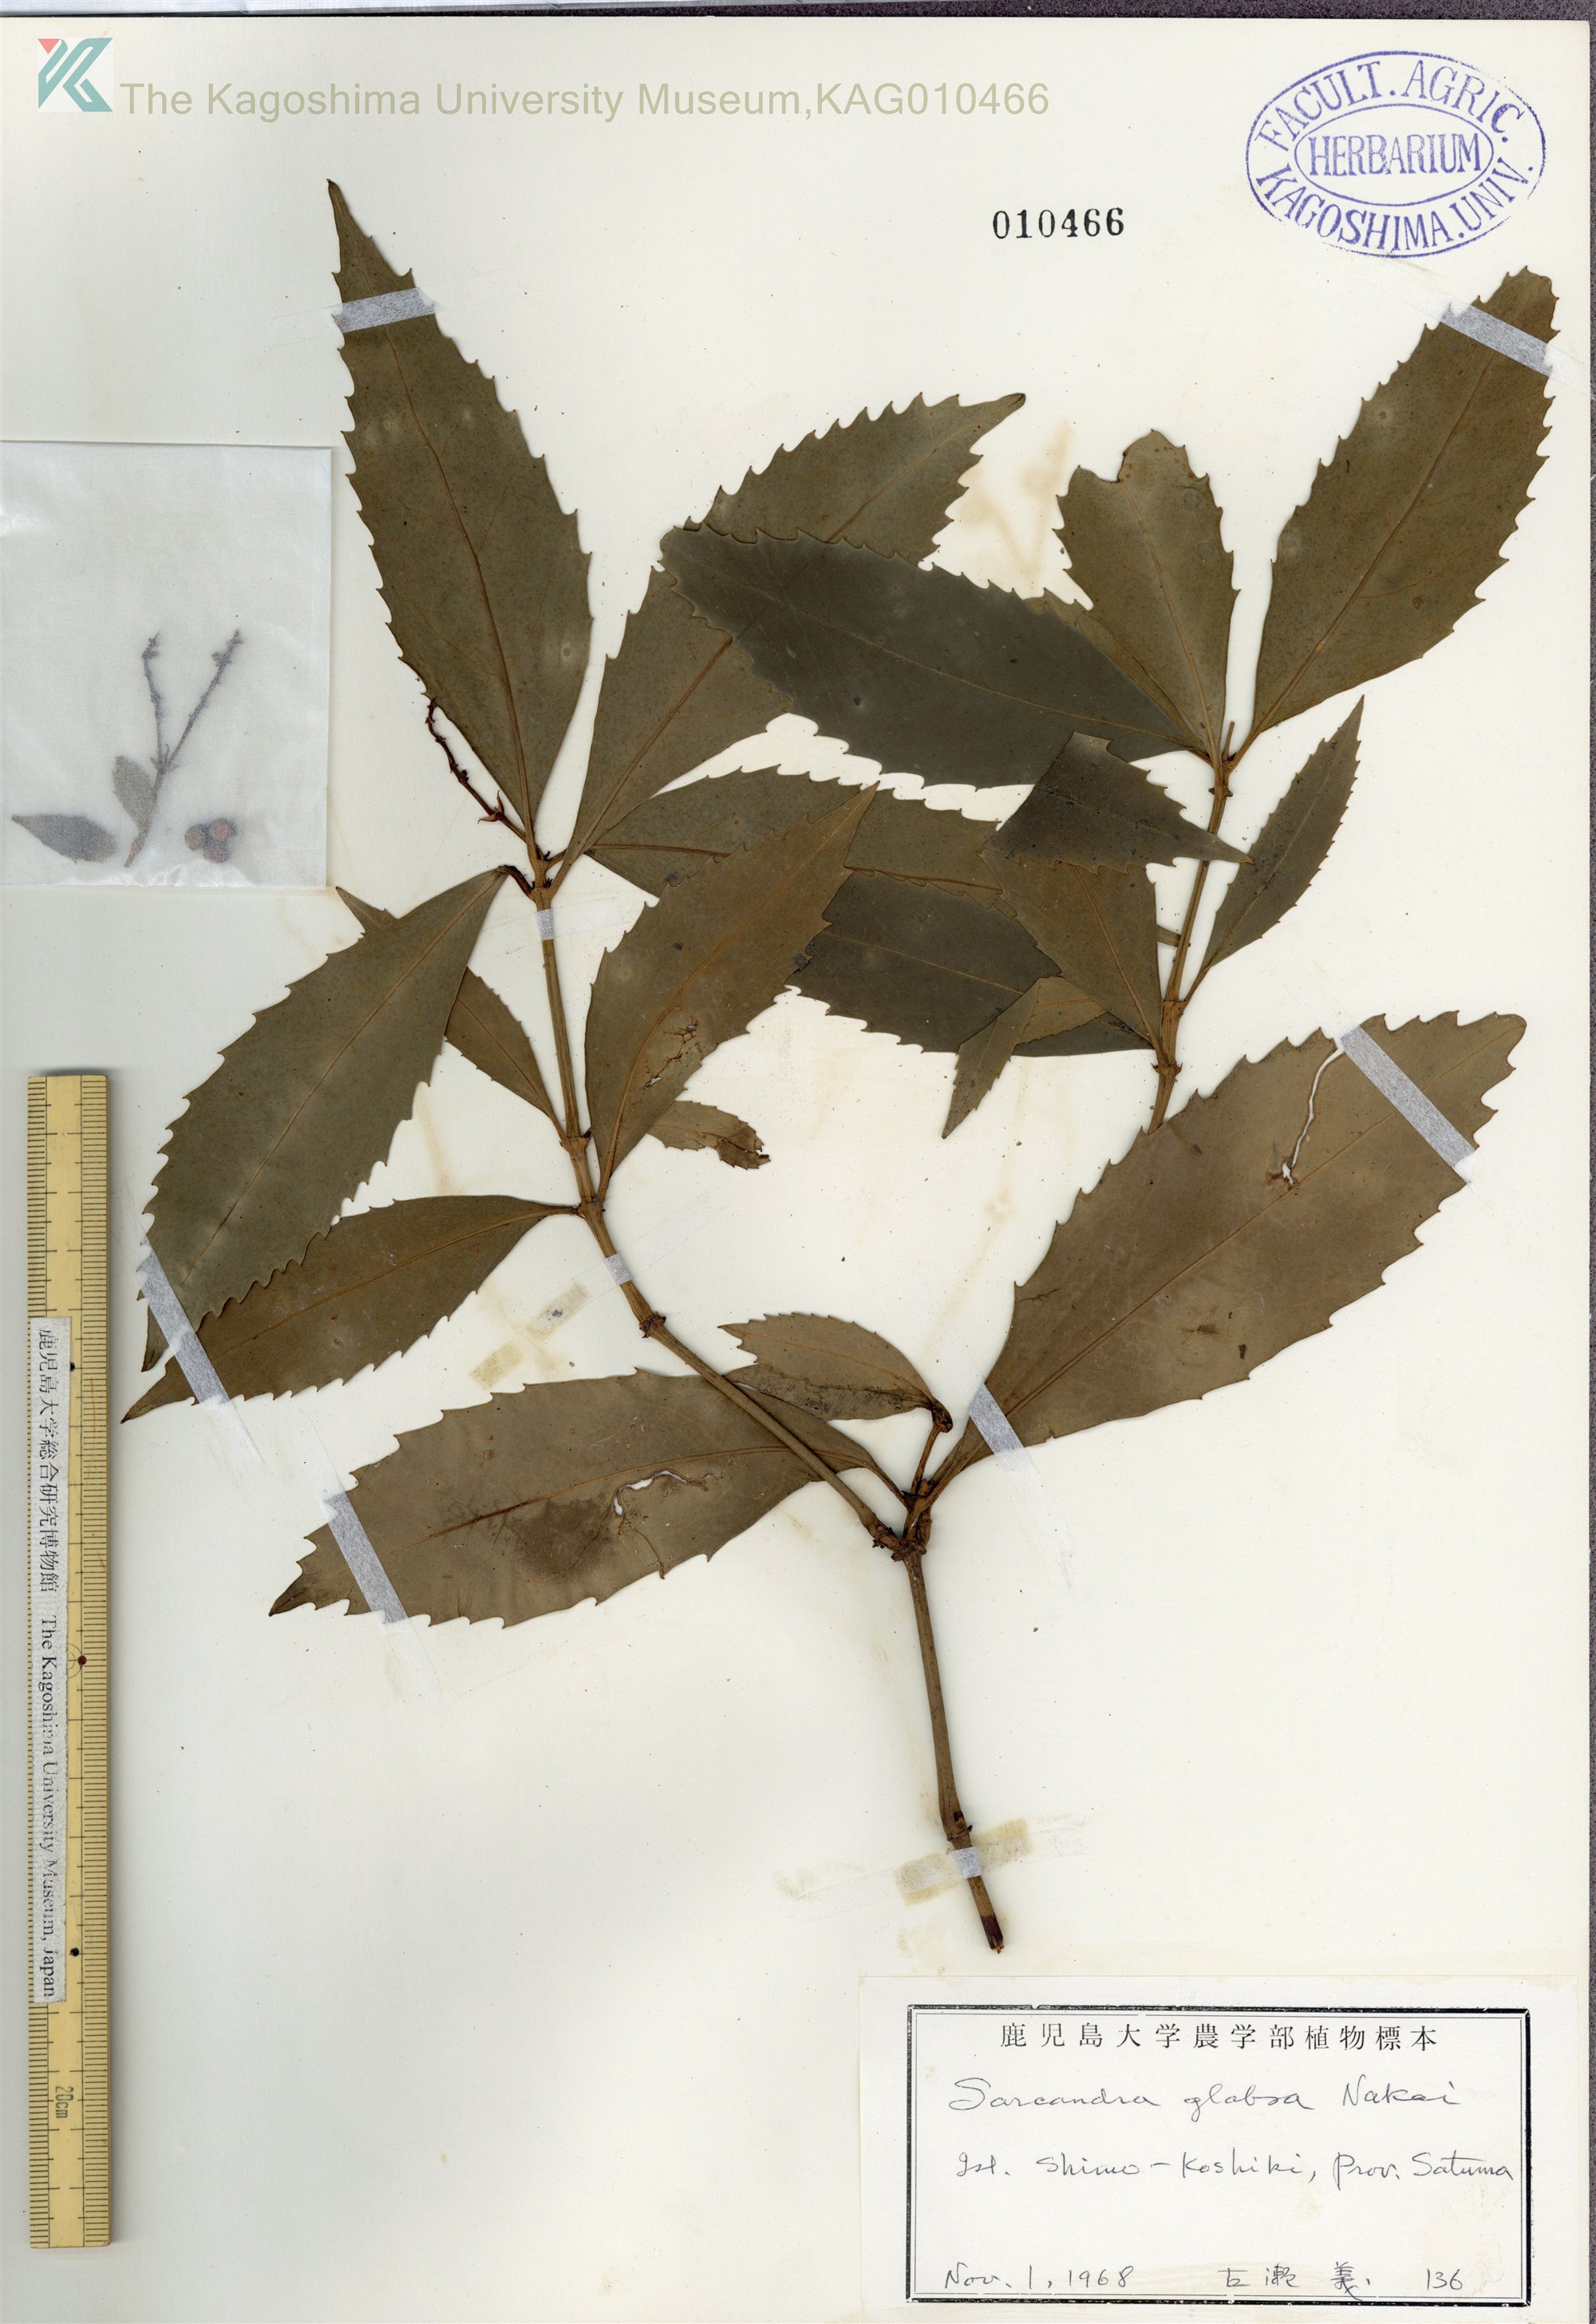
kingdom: Plantae
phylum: Tracheophyta
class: Magnoliopsida
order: Chloranthales
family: Chloranthaceae
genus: Sarcandra
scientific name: Sarcandra glabra
